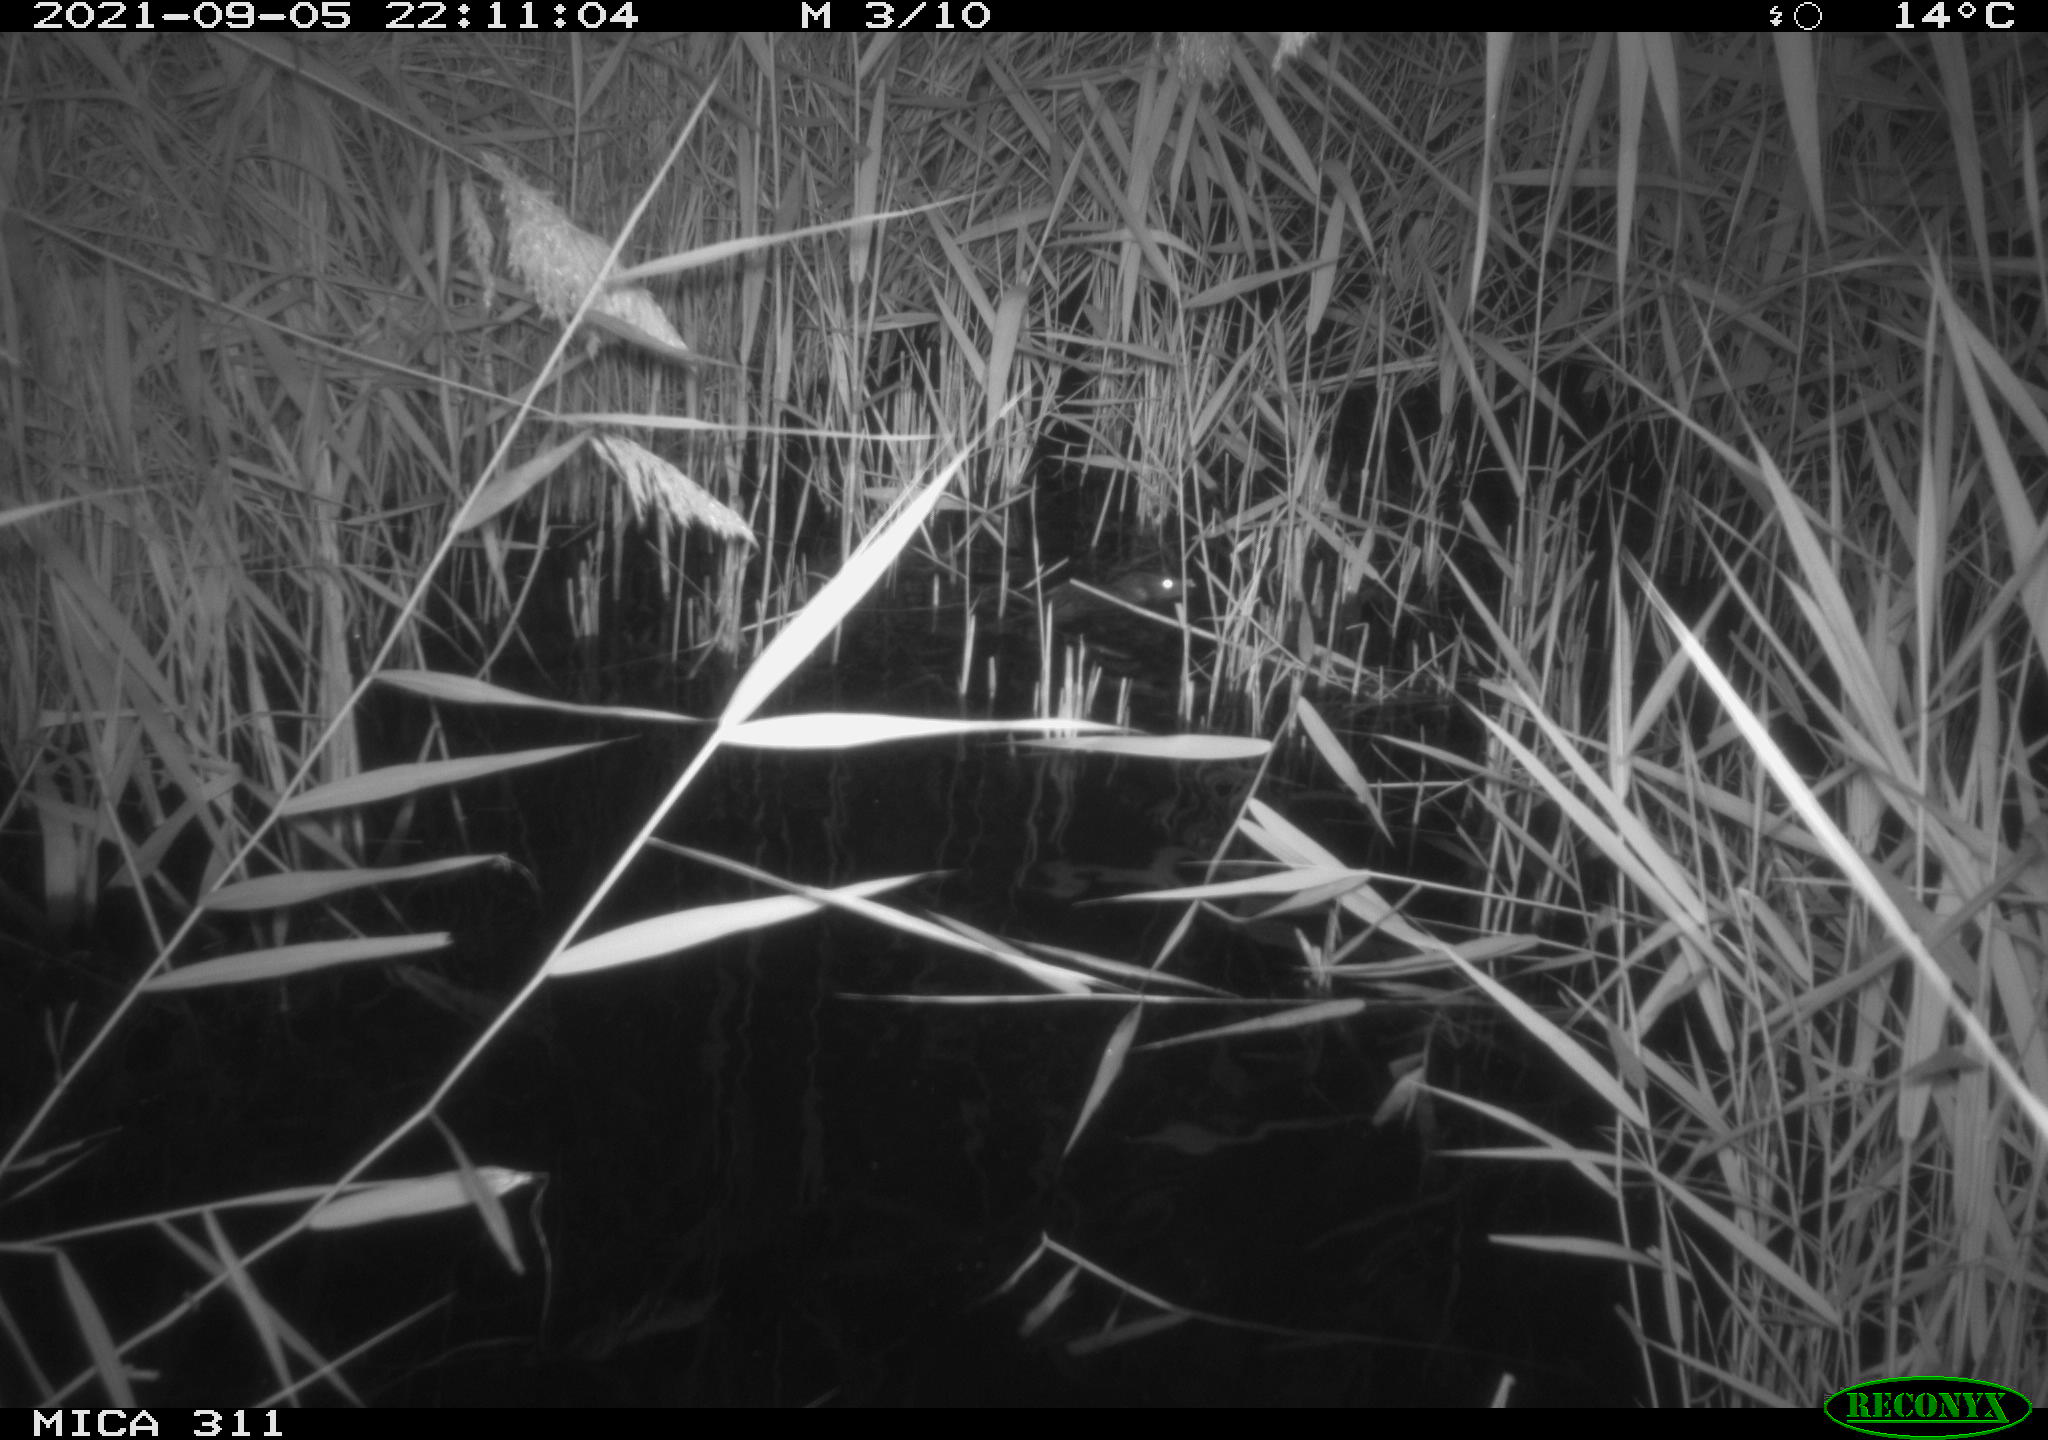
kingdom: Animalia
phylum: Chordata
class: Mammalia
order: Rodentia
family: Muridae
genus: Rattus
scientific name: Rattus norvegicus
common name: Brown rat
